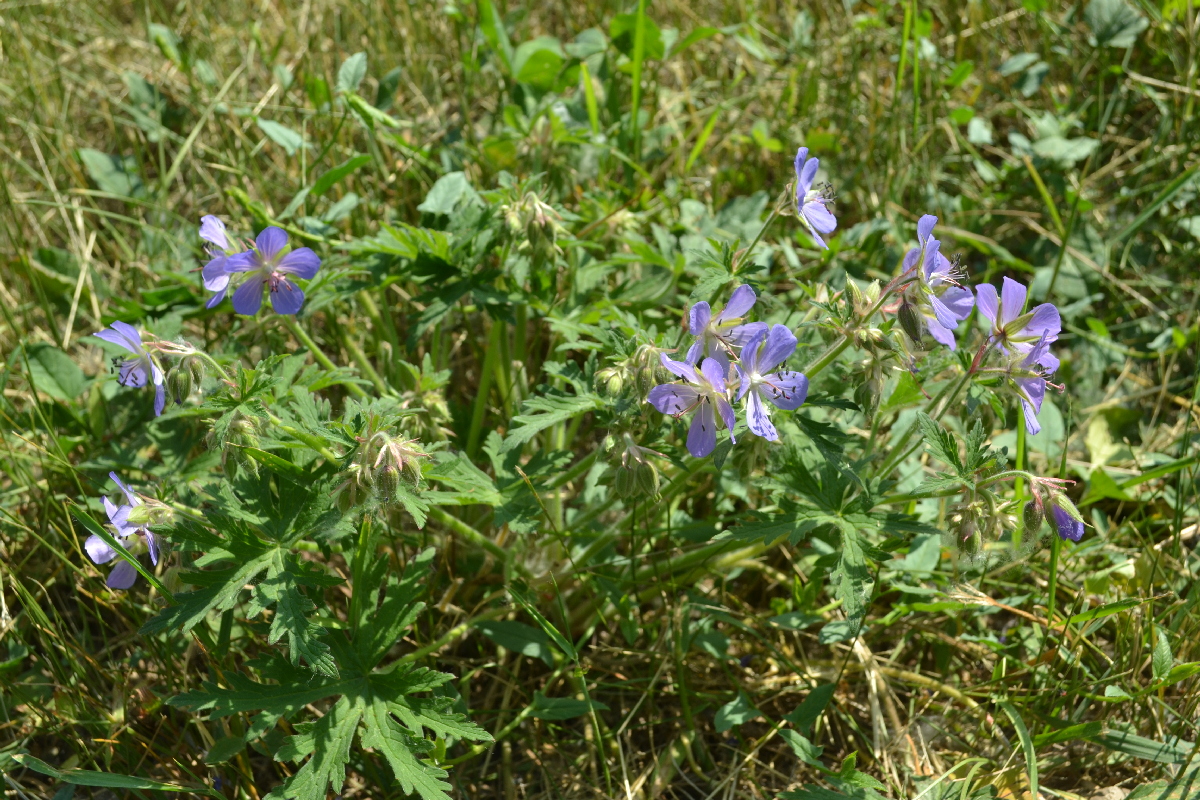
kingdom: Plantae
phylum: Tracheophyta
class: Magnoliopsida
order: Geraniales
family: Geraniaceae
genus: Geranium
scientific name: Geranium pratense
